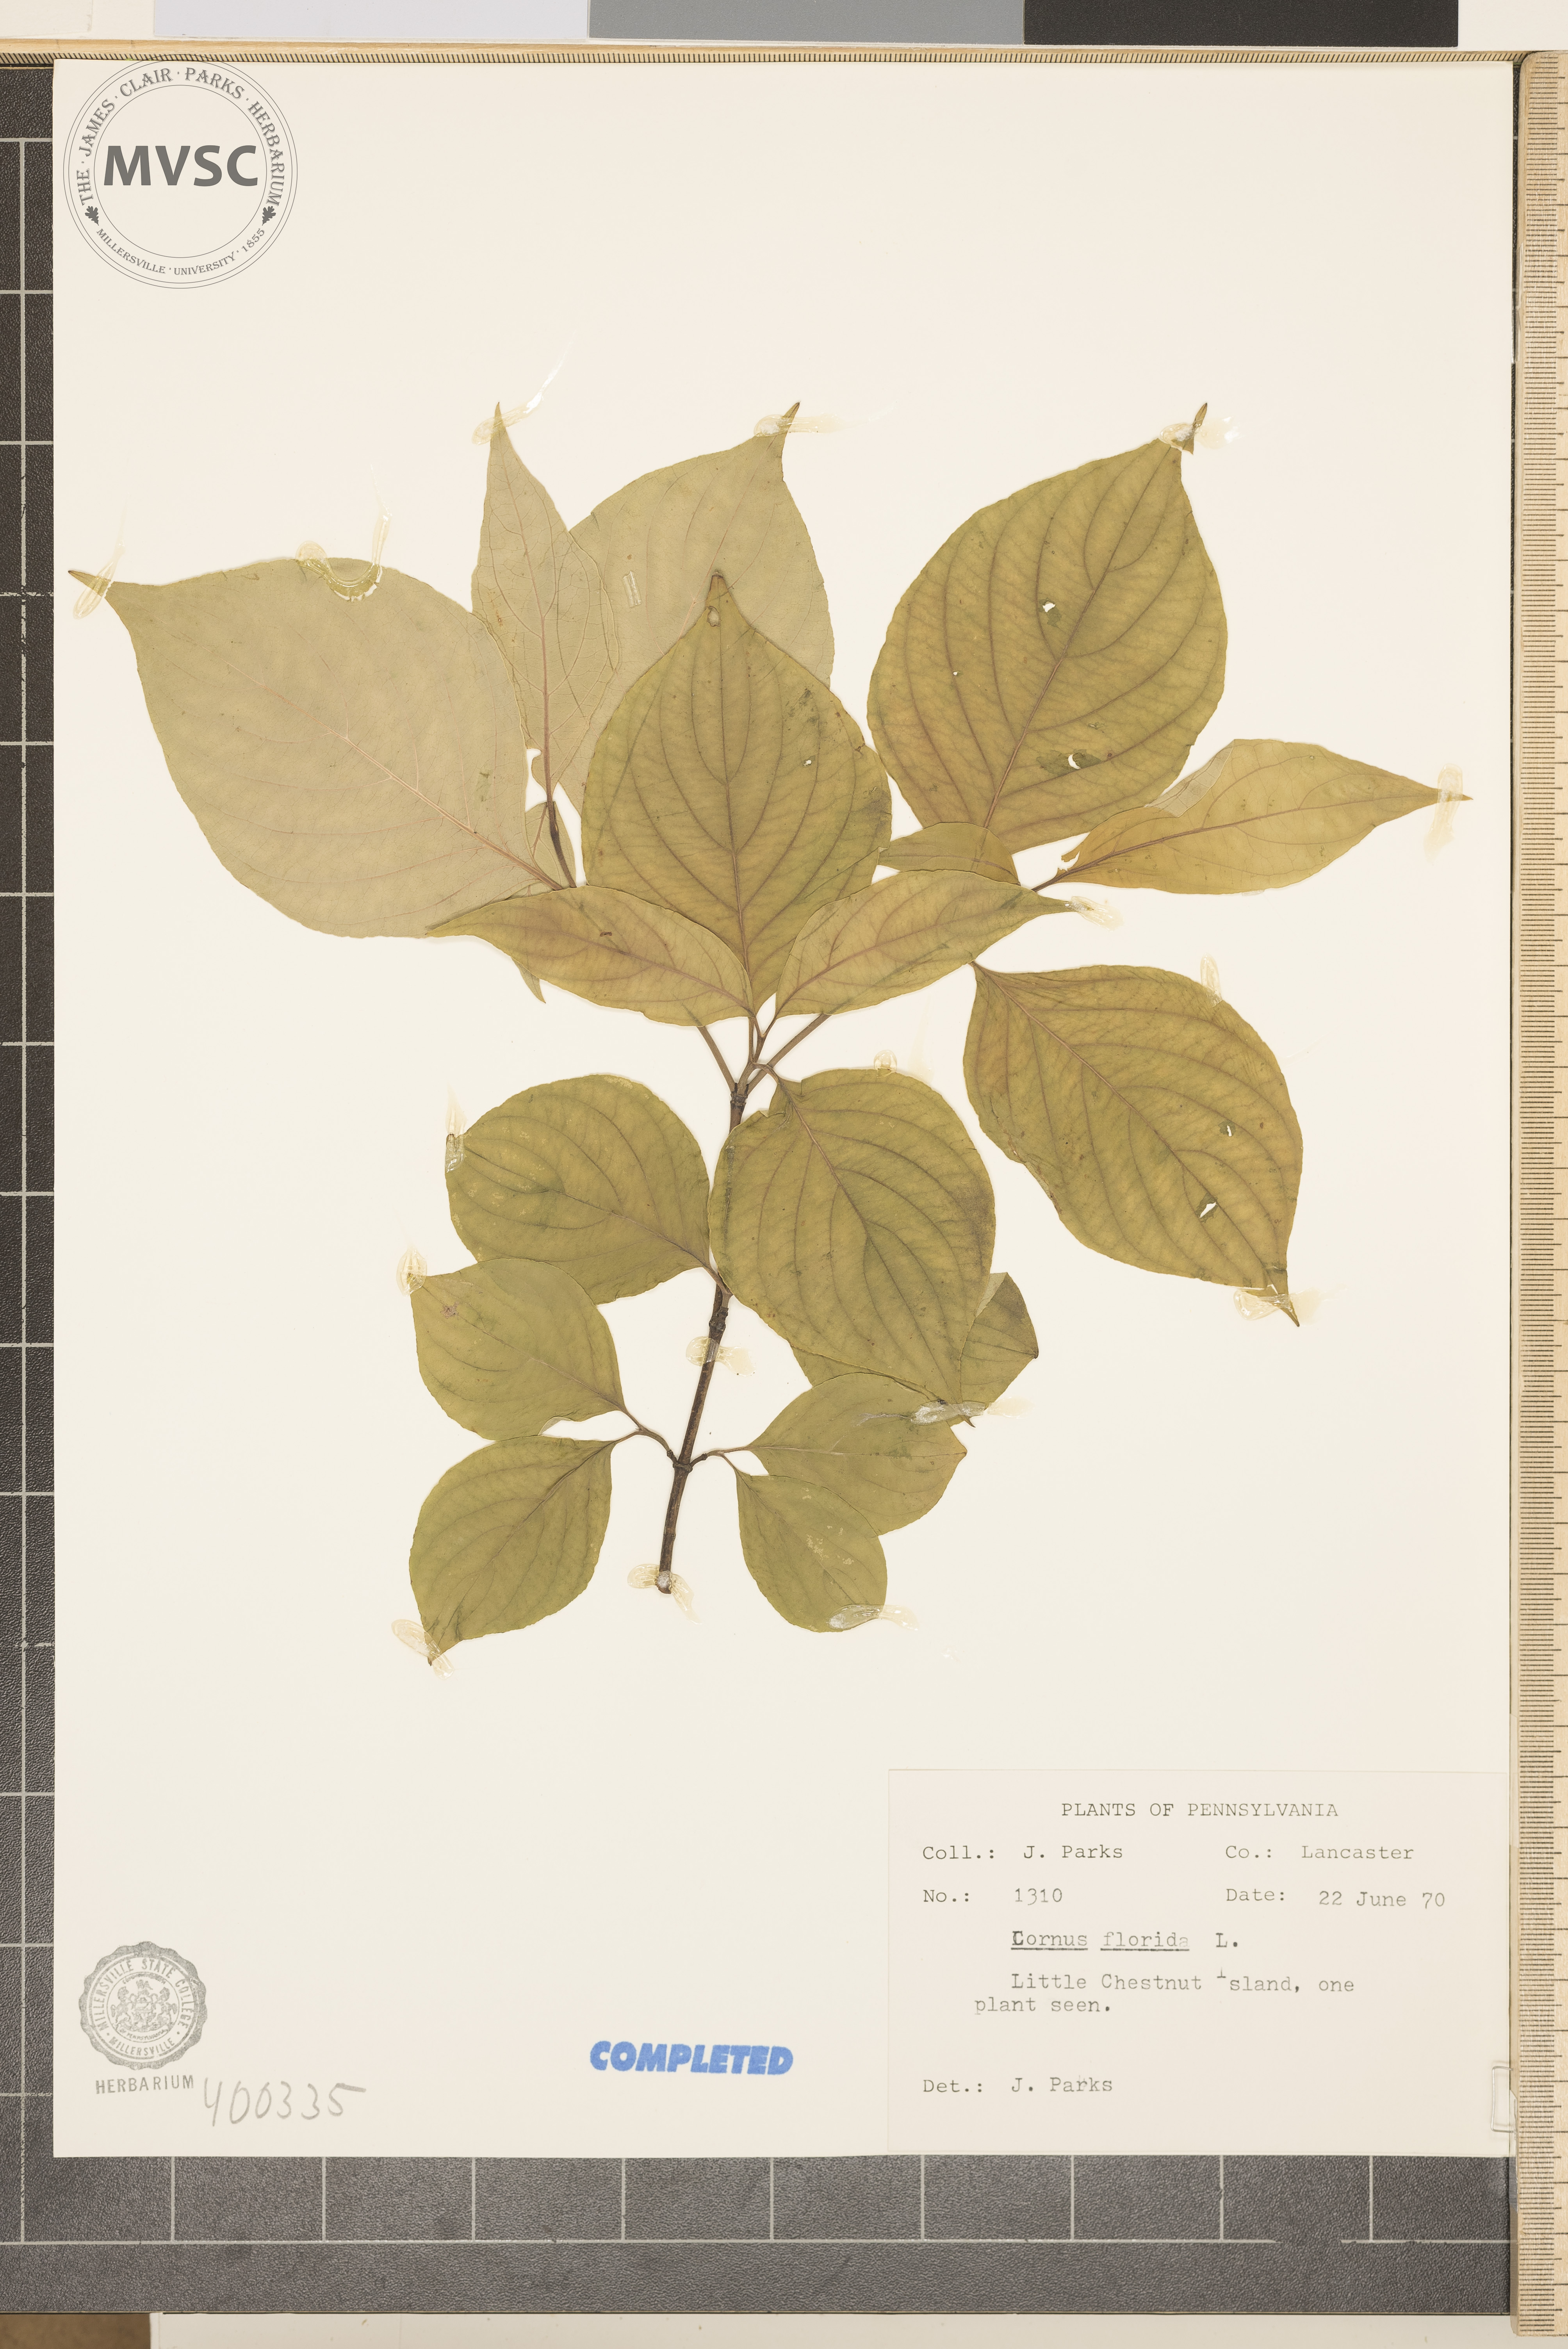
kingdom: Plantae
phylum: Tracheophyta
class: Magnoliopsida
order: Cornales
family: Cornaceae
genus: Cornus
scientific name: Cornus florida
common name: flowering dogwood
